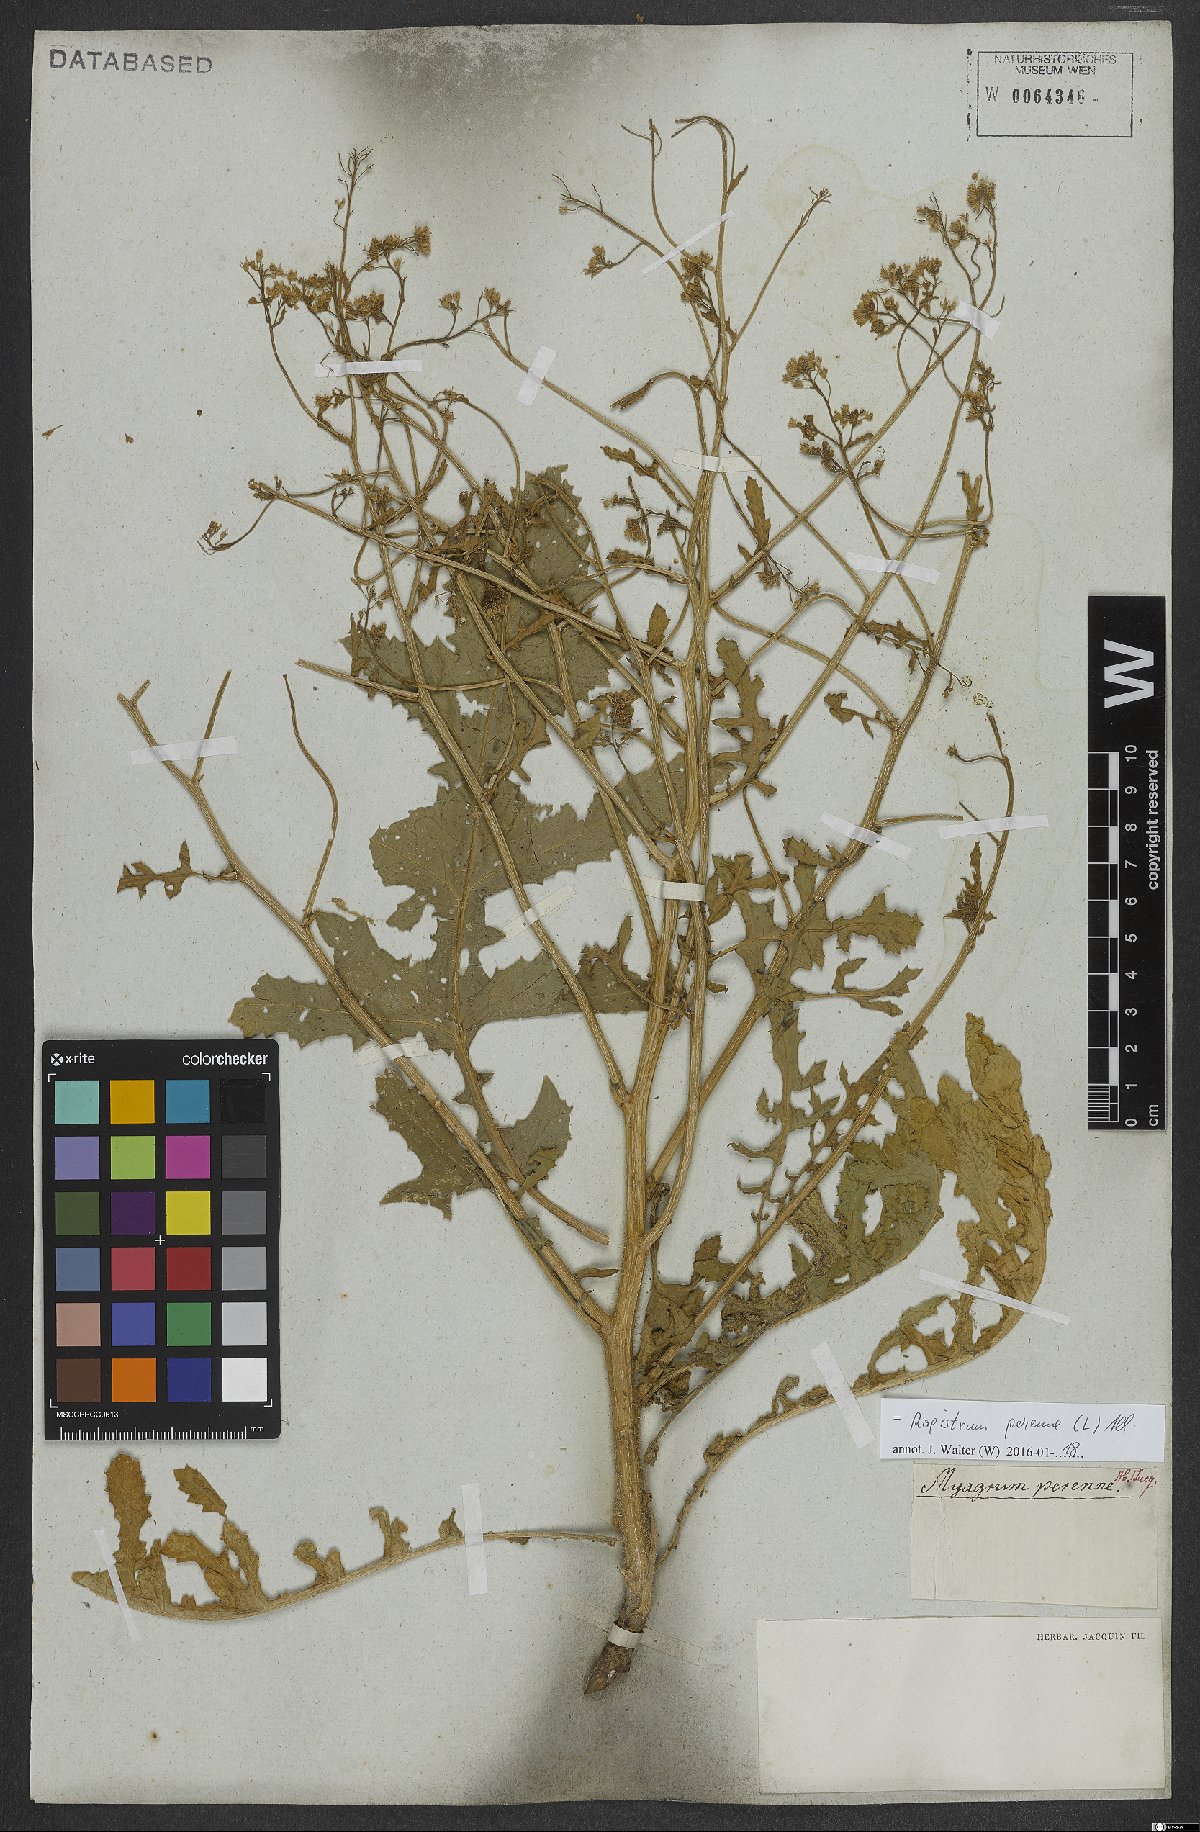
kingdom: Plantae
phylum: Tracheophyta
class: Magnoliopsida
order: Brassicales
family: Brassicaceae
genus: Rapistrum
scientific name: Rapistrum perenne
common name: Steppe cabbage
